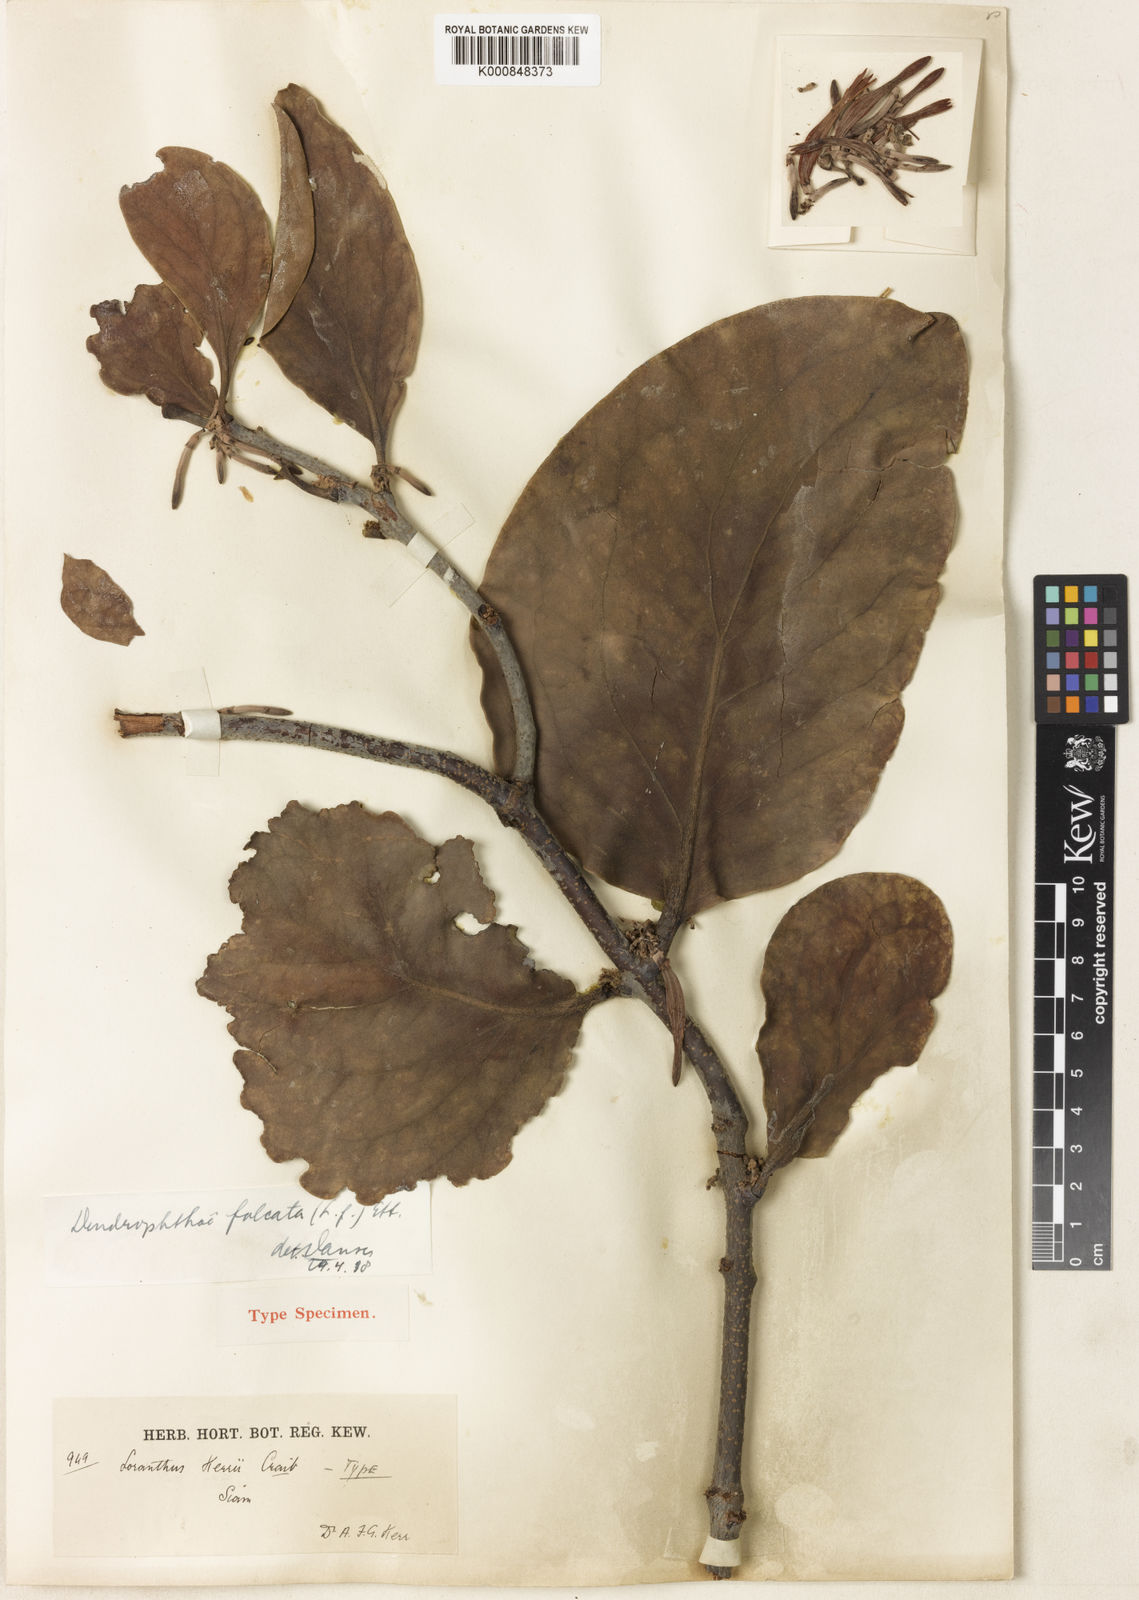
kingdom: Plantae
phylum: Tracheophyta
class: Magnoliopsida
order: Santalales
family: Loranthaceae
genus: Dendrophthoe
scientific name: Dendrophthoe
